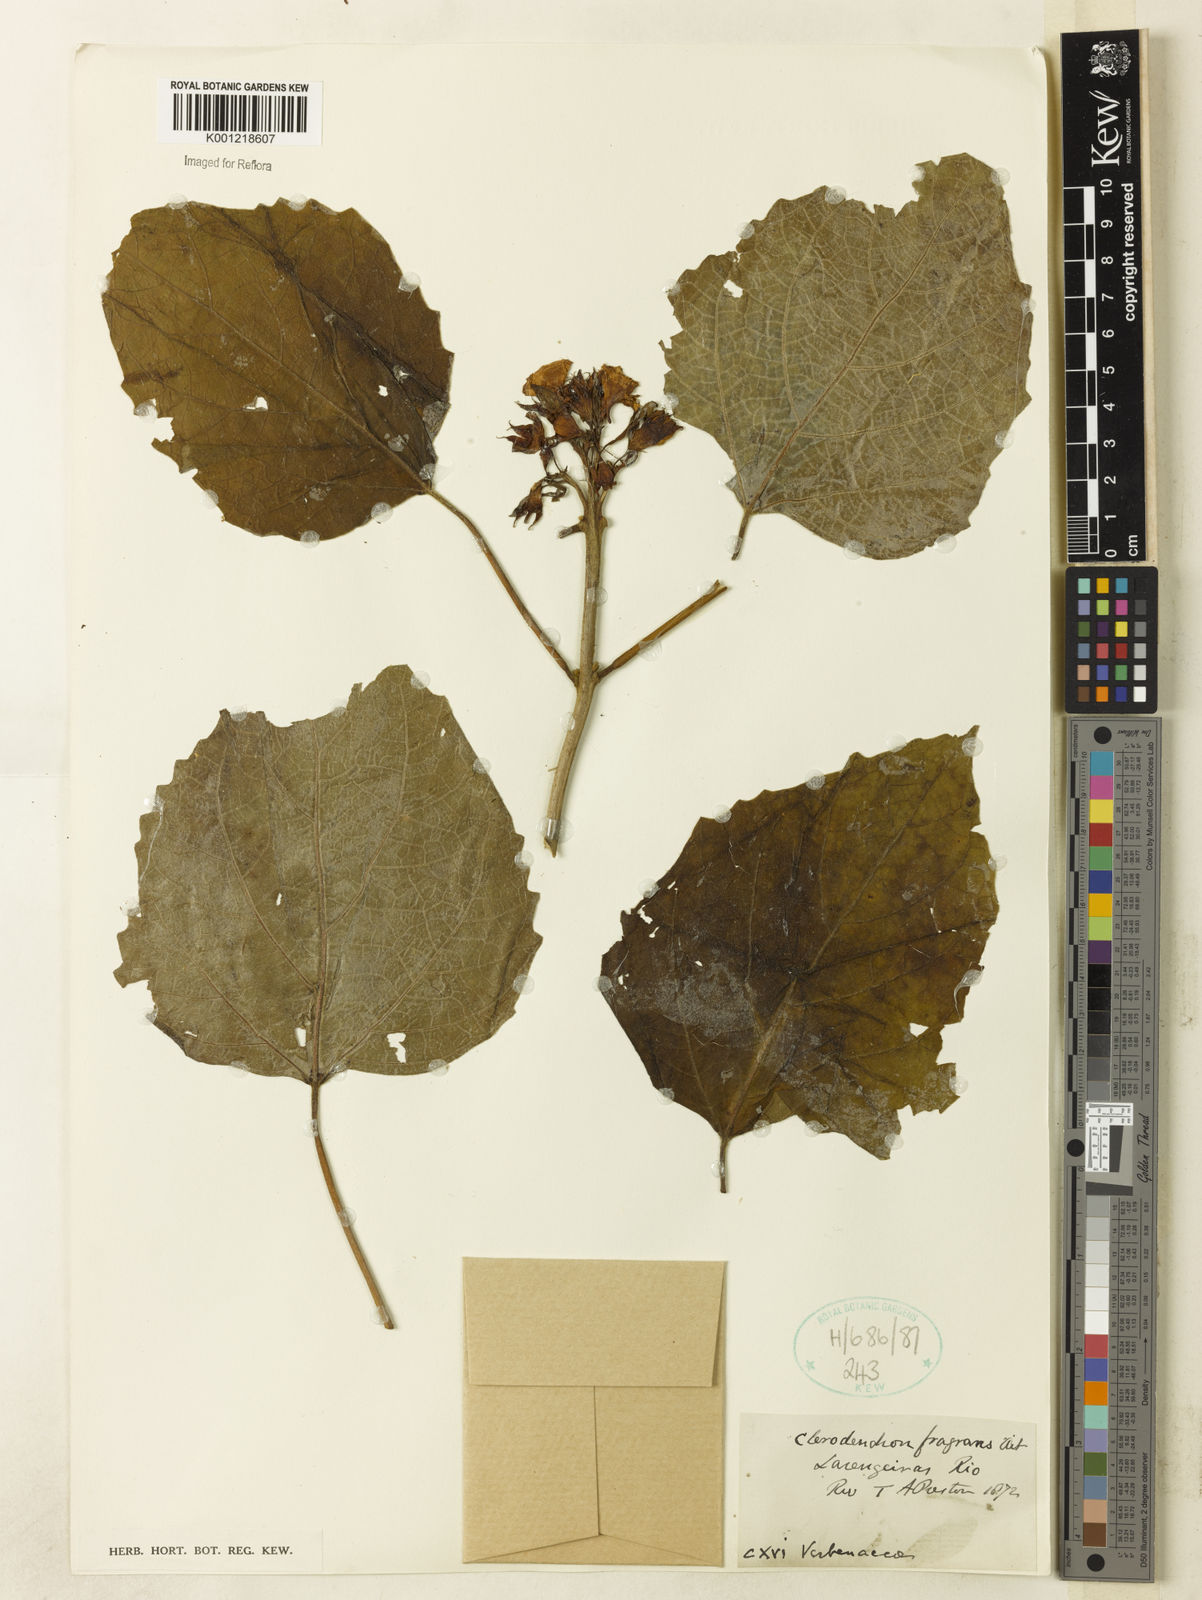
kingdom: Plantae
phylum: Tracheophyta
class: Magnoliopsida
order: Lamiales
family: Lamiaceae
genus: Clerodendrum
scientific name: Clerodendrum chinense
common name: Stickbush
